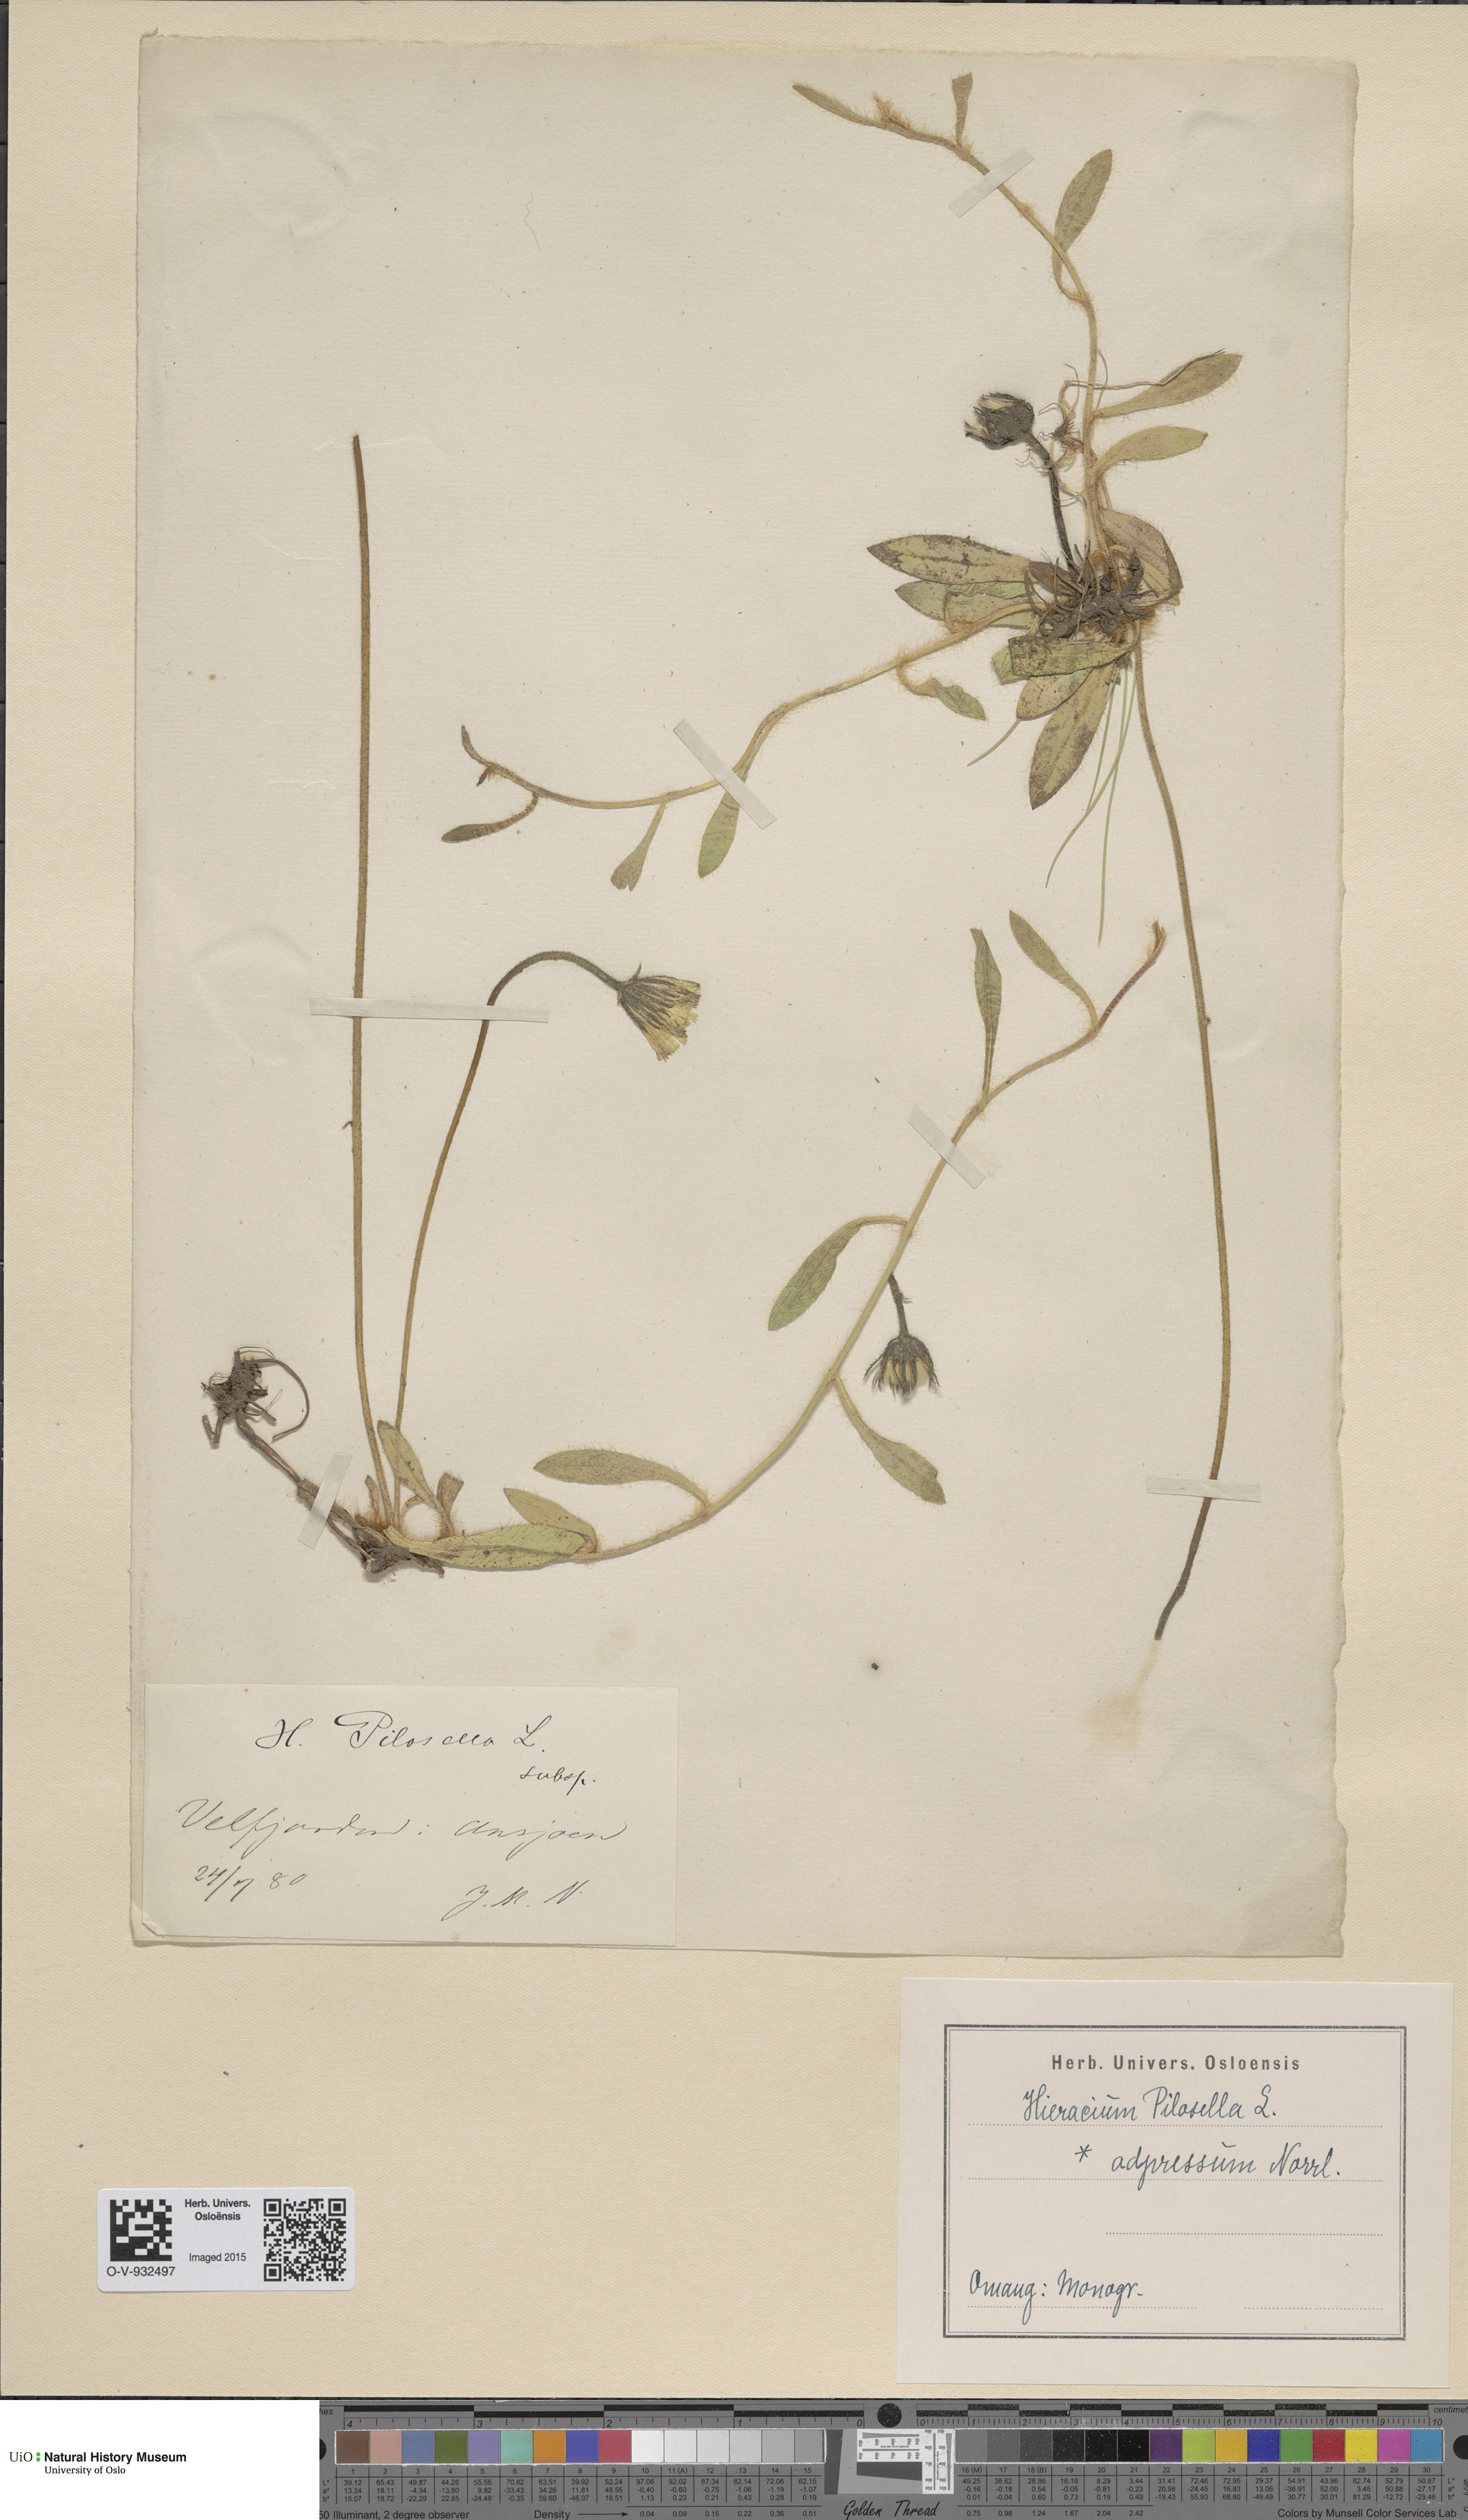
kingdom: Plantae
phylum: Tracheophyta
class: Magnoliopsida
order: Asterales
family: Asteraceae
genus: Pilosella
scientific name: Pilosella officinarum
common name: Mouse-ear hawkweed
